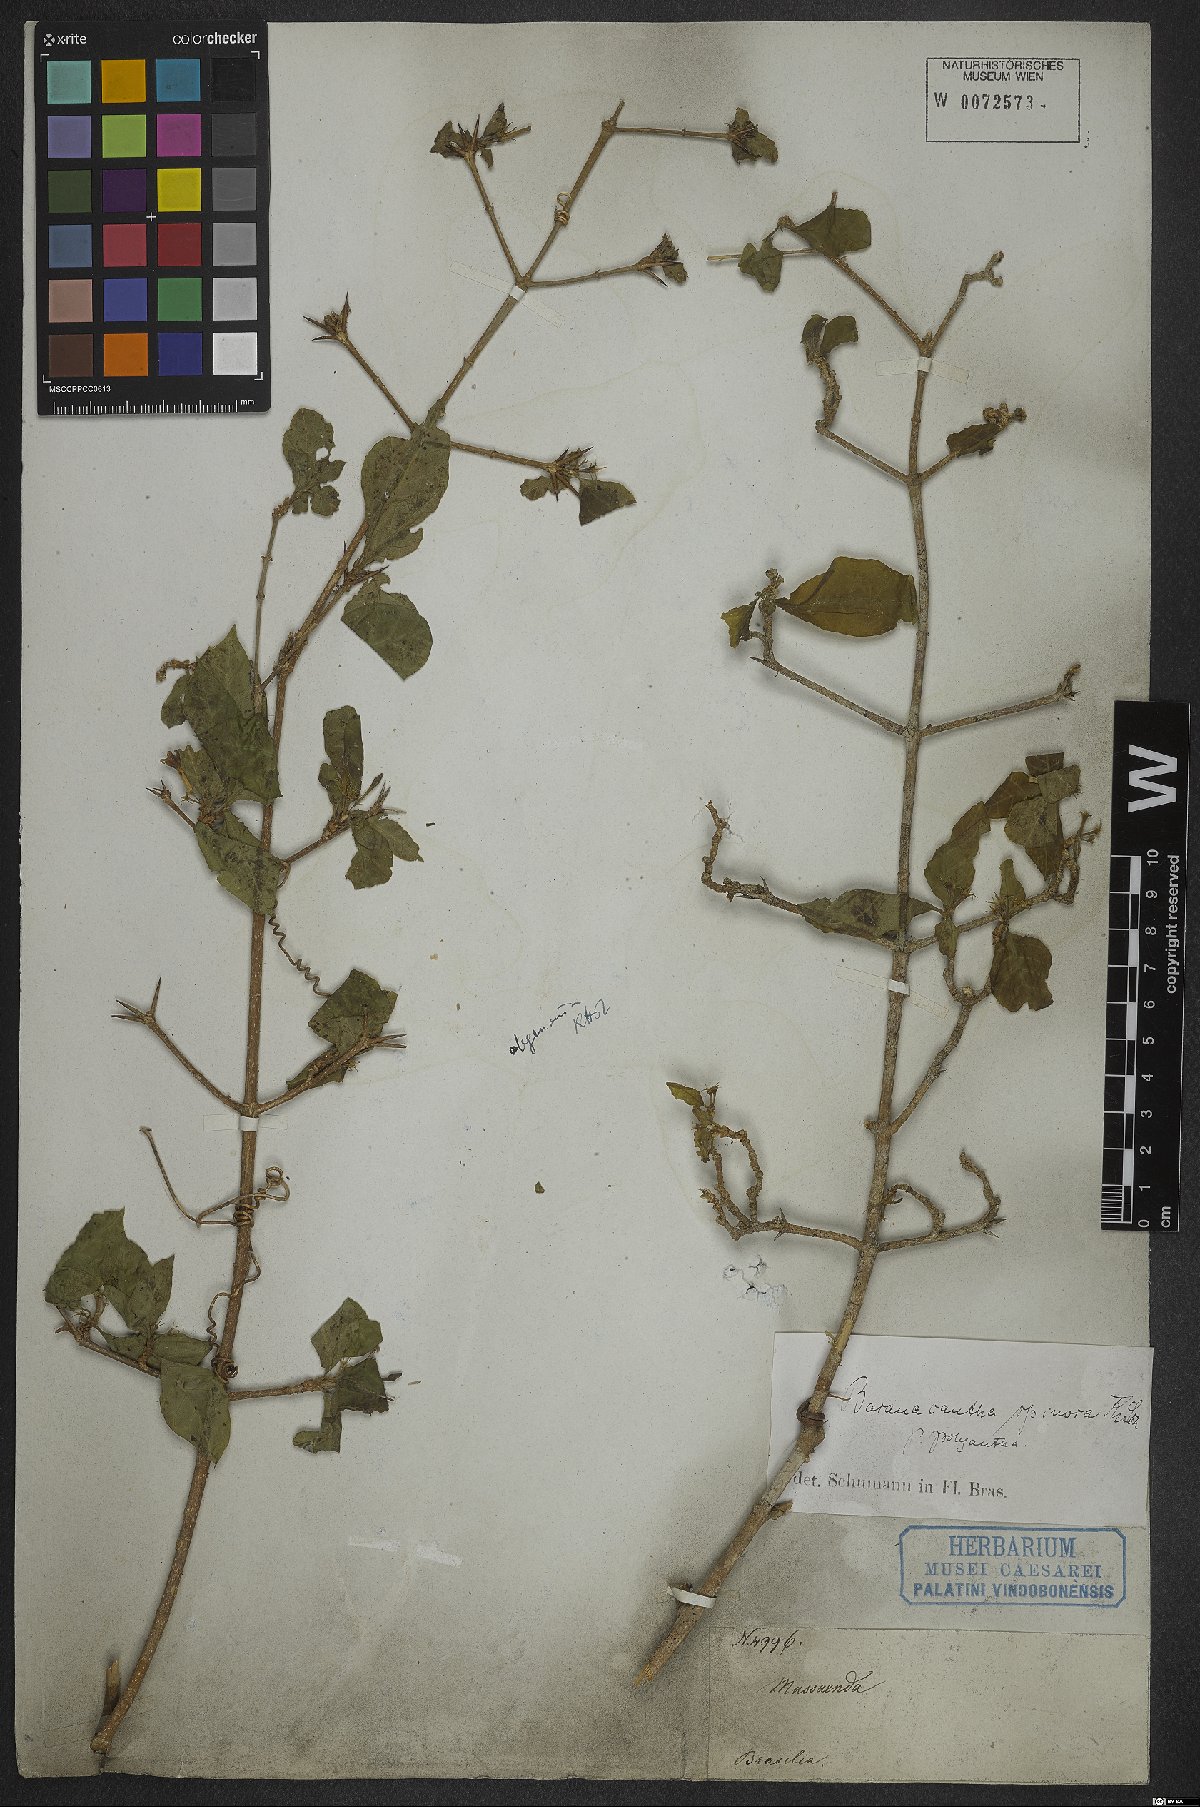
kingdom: Plantae
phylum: Tracheophyta
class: Magnoliopsida
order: Gentianales
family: Rubiaceae
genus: Randia
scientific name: Randia armata
